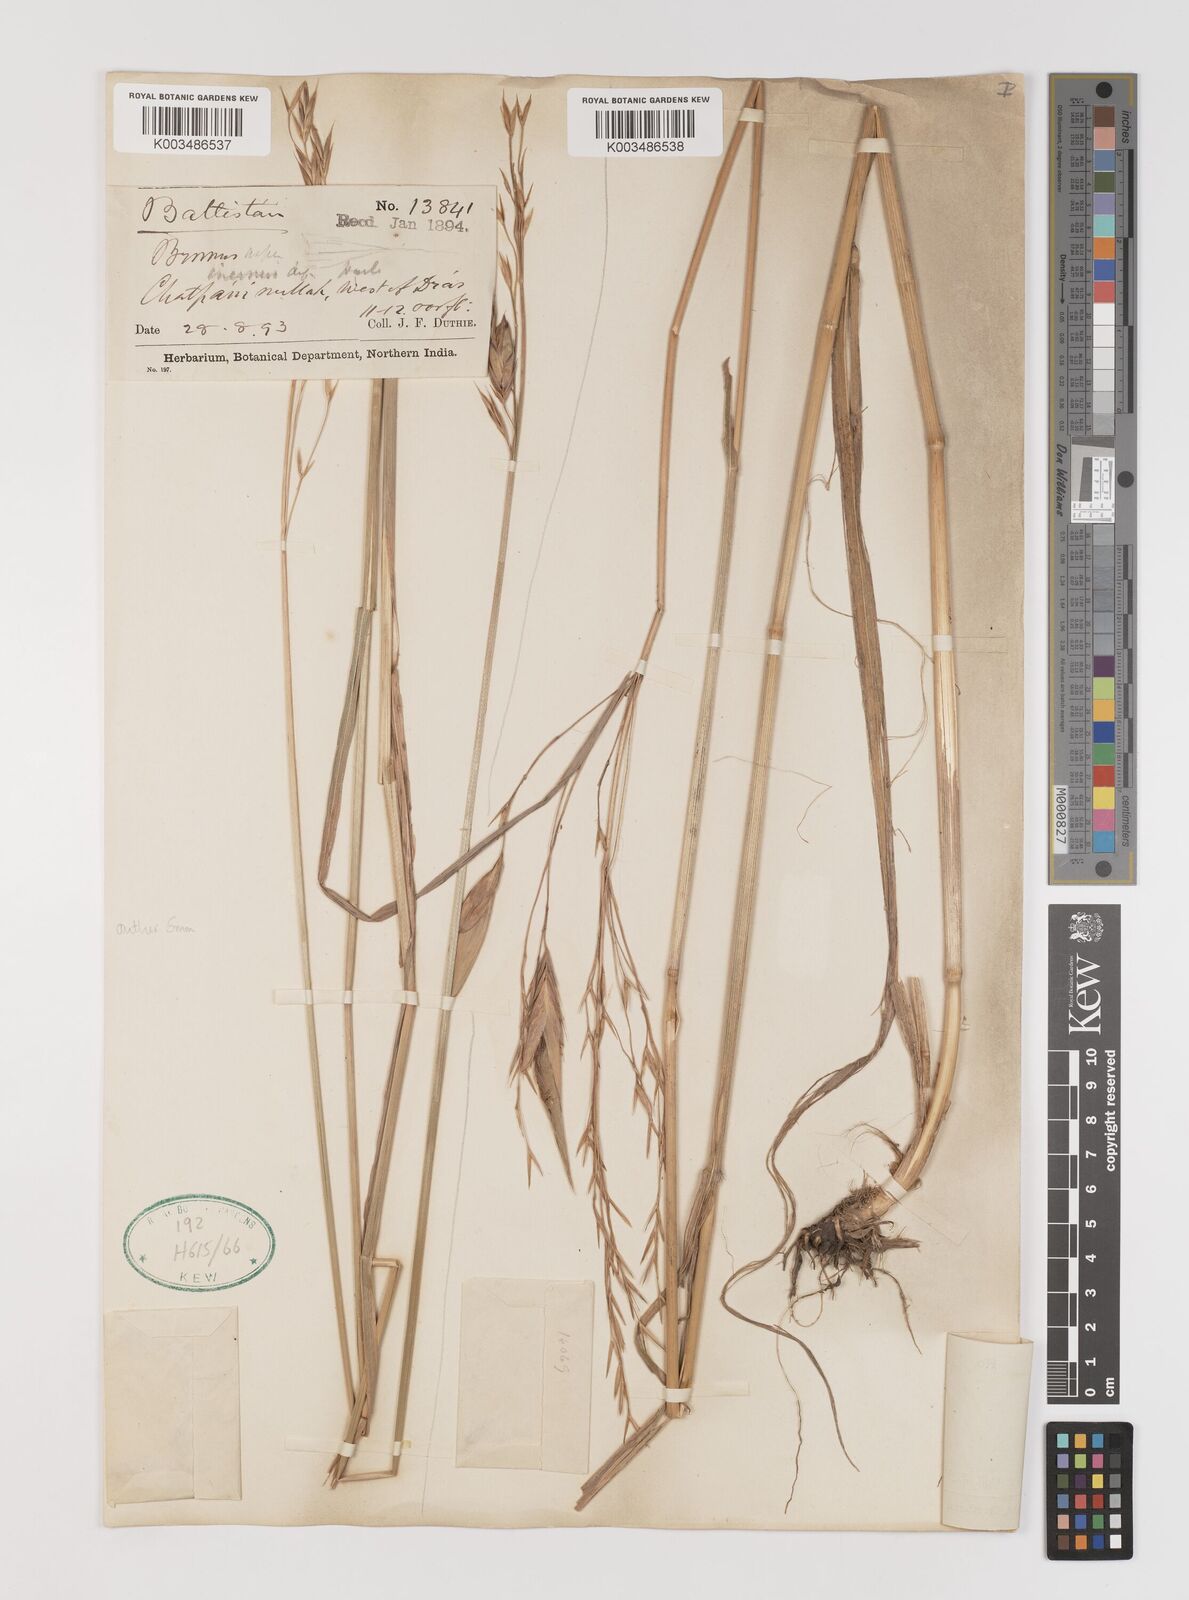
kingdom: Plantae
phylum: Tracheophyta
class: Liliopsida
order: Poales
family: Poaceae
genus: Bromus
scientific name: Bromus inermis
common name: Smooth brome
